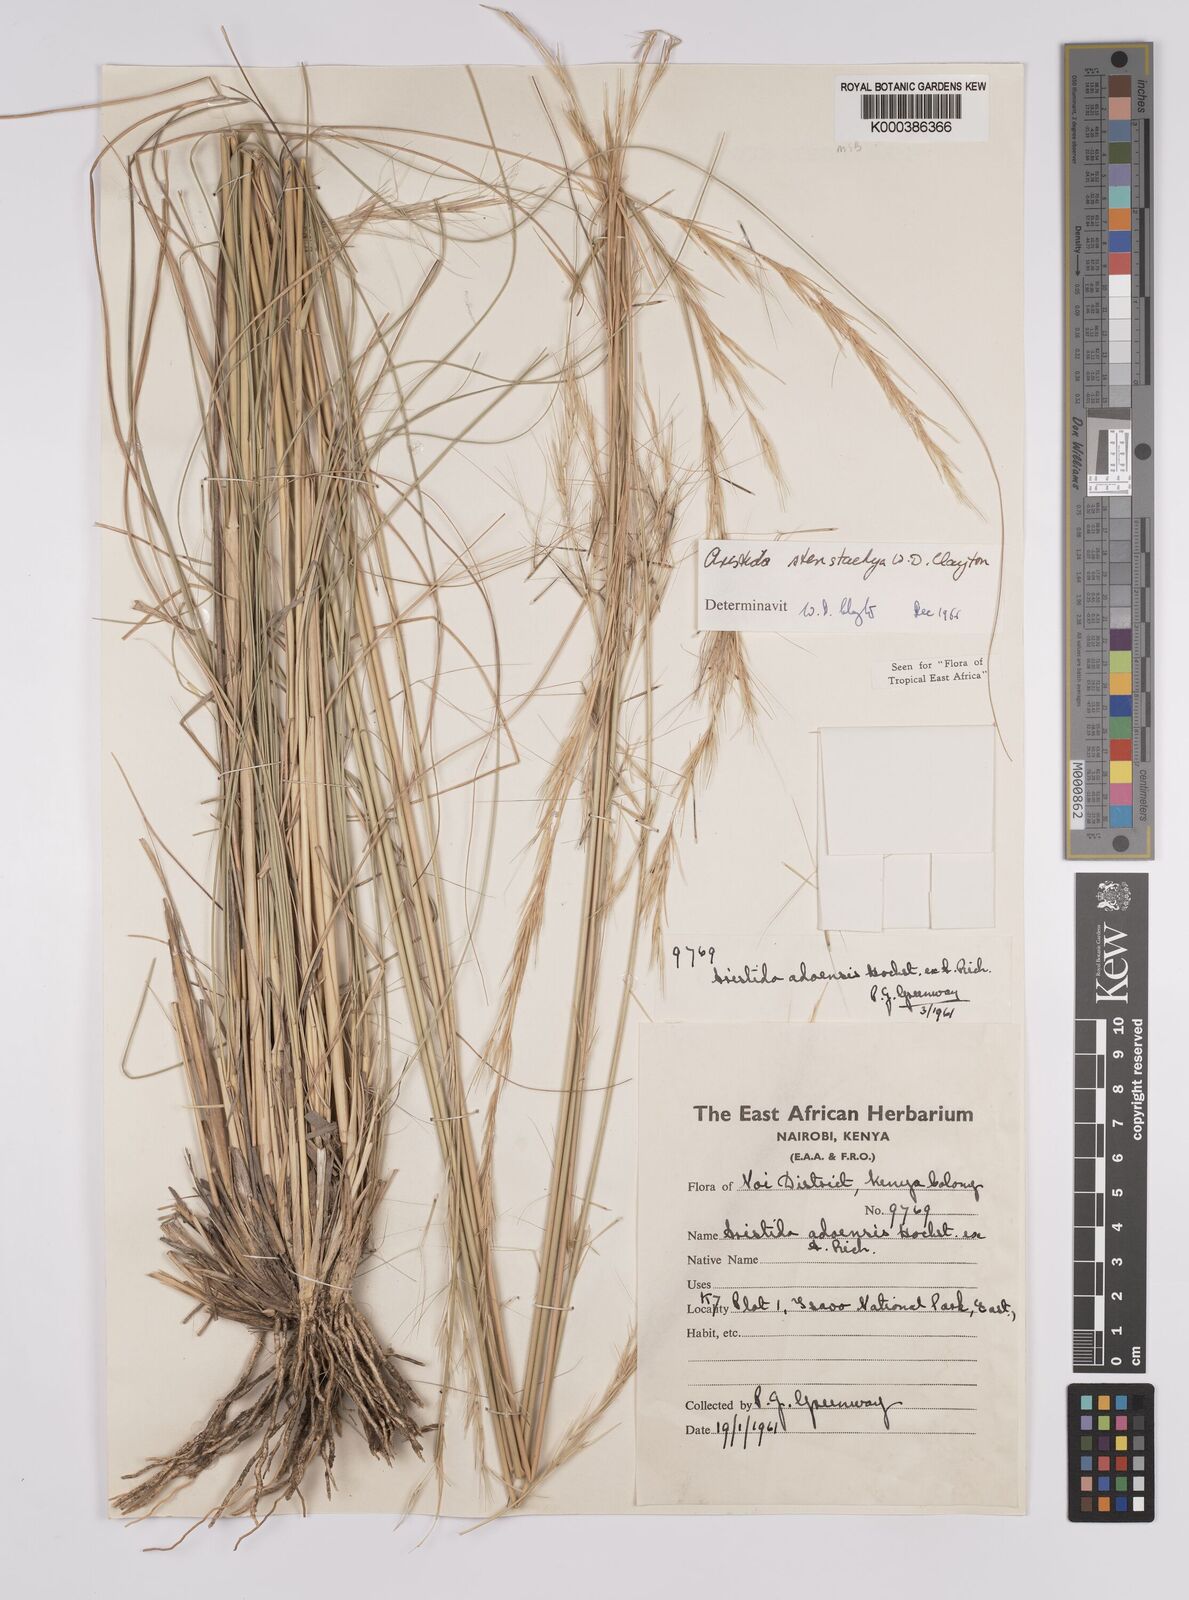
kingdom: Plantae
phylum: Tracheophyta
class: Liliopsida
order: Poales
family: Poaceae
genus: Aristida
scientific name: Aristida stenostachya
